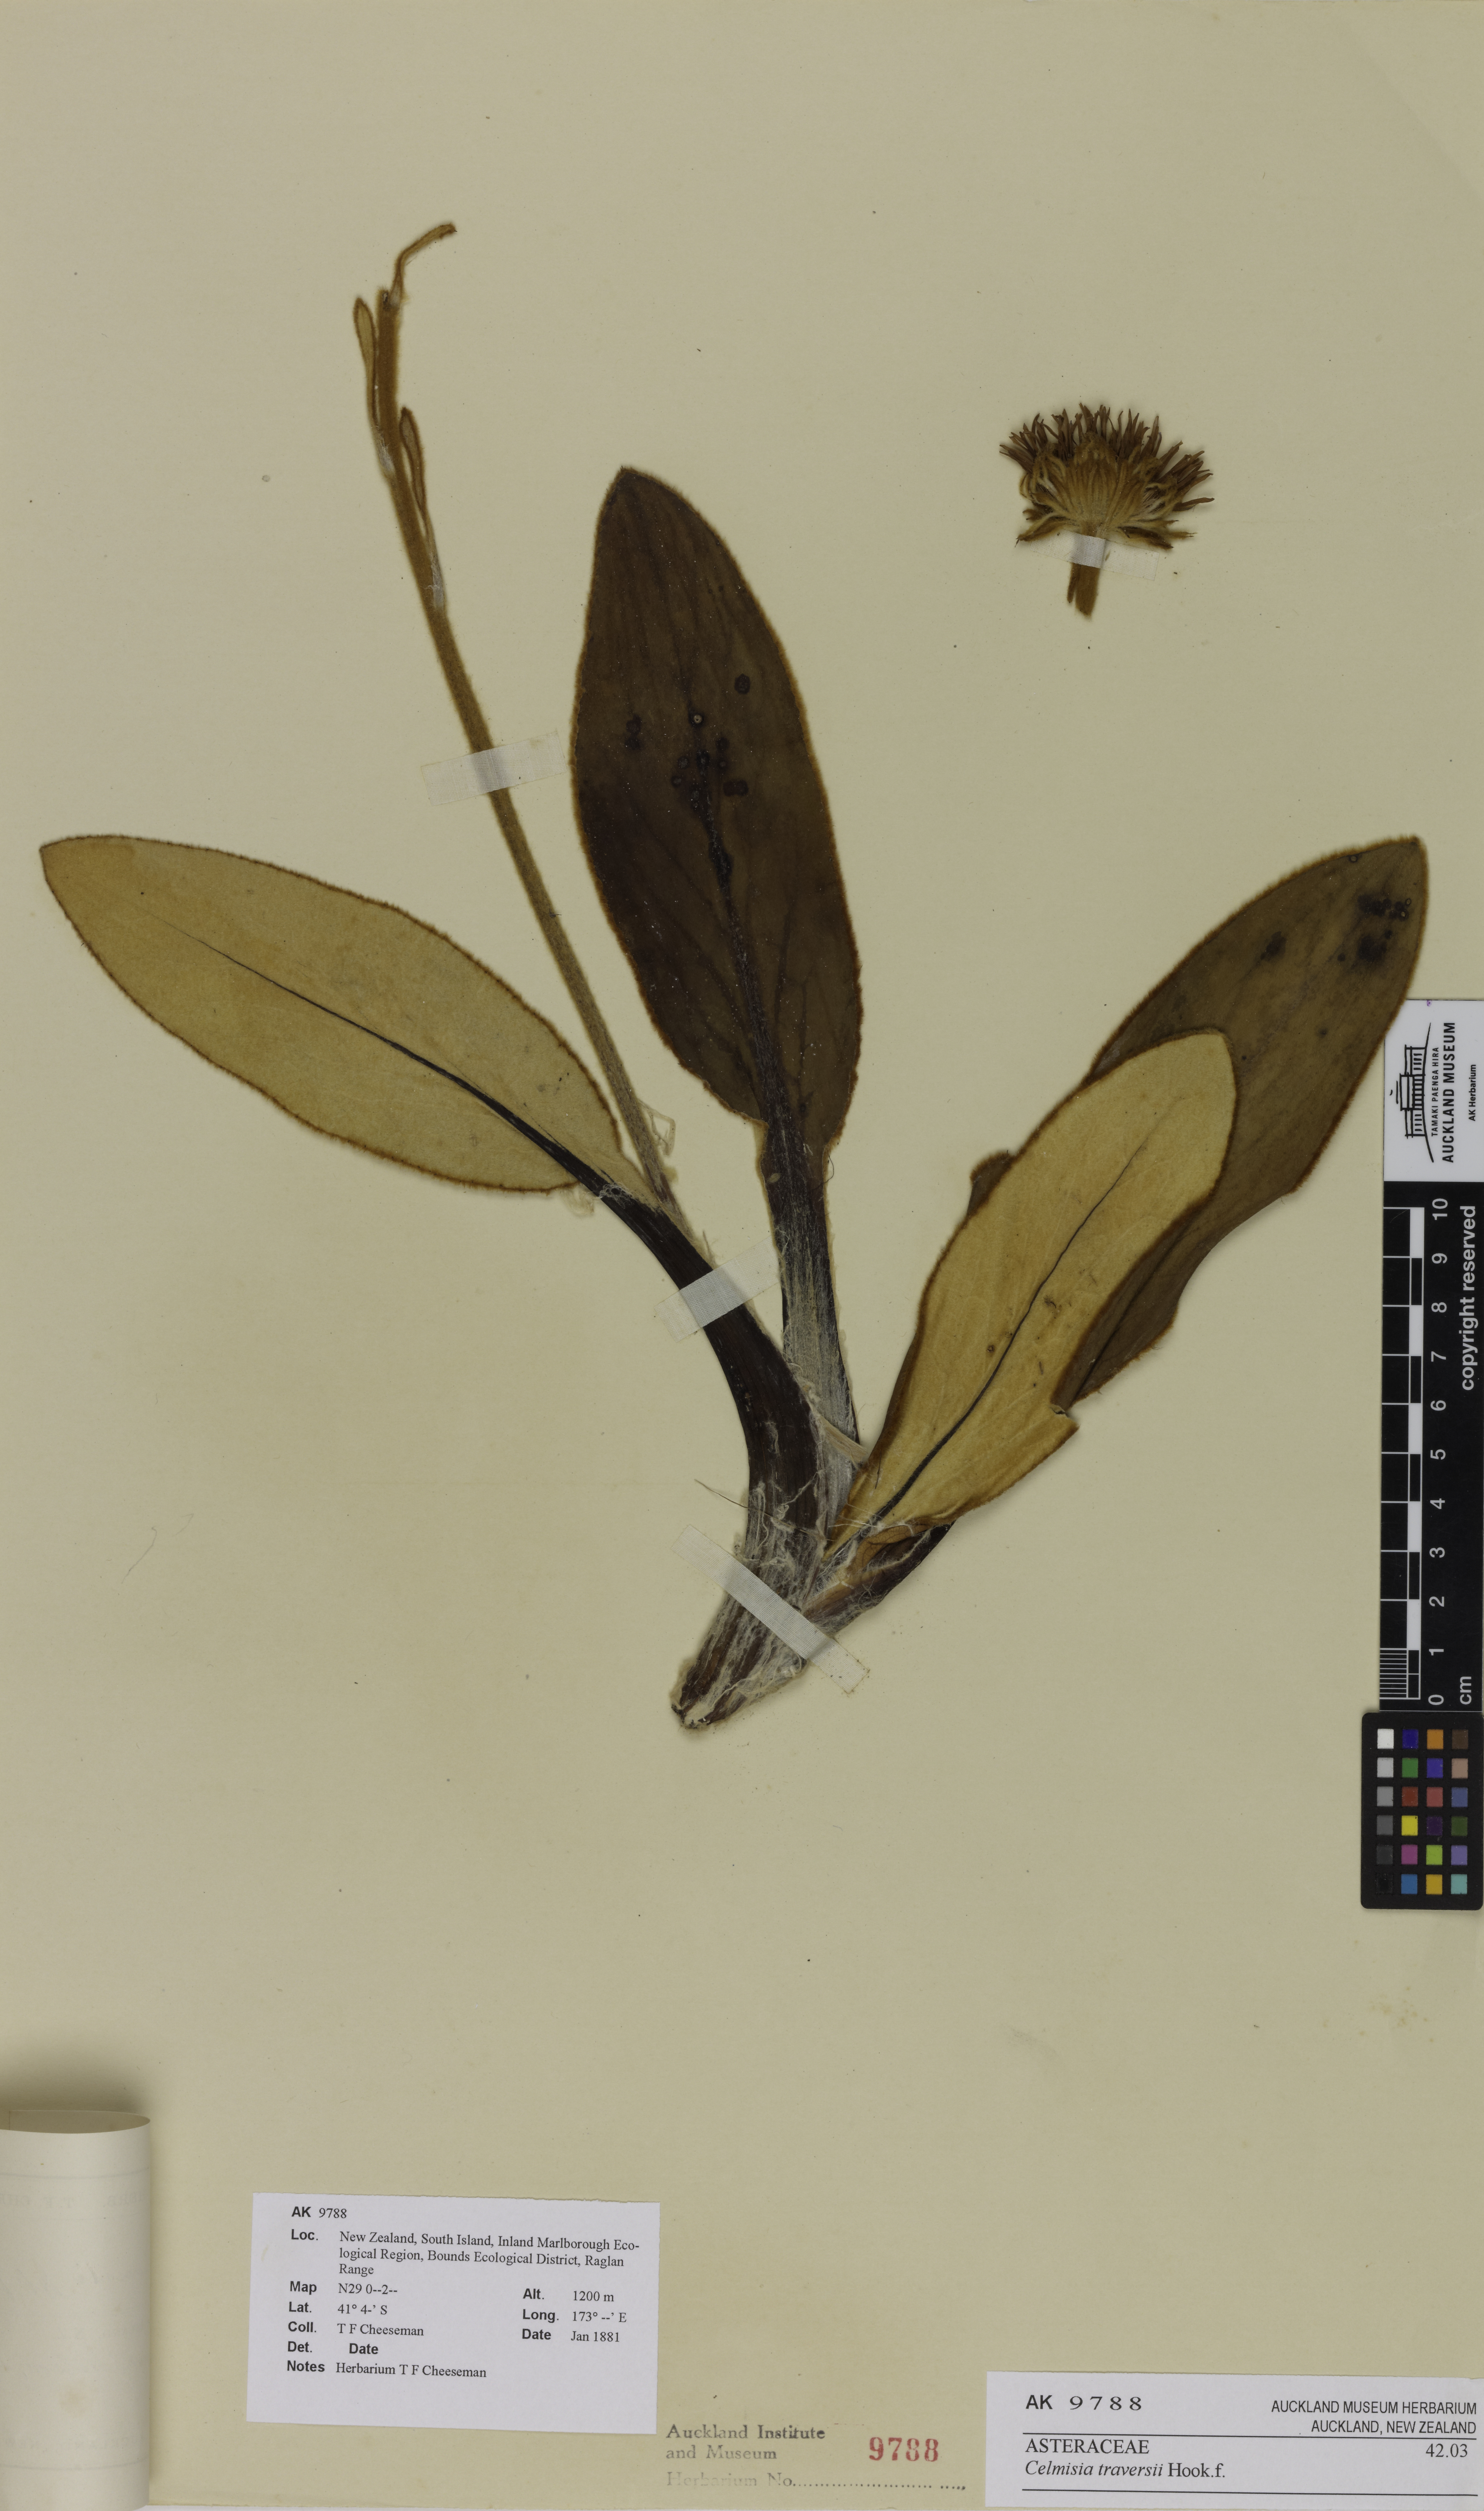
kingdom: Plantae
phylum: Tracheophyta
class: Magnoliopsida
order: Asterales
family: Asteraceae
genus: Celmisia
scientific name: Celmisia traversii
